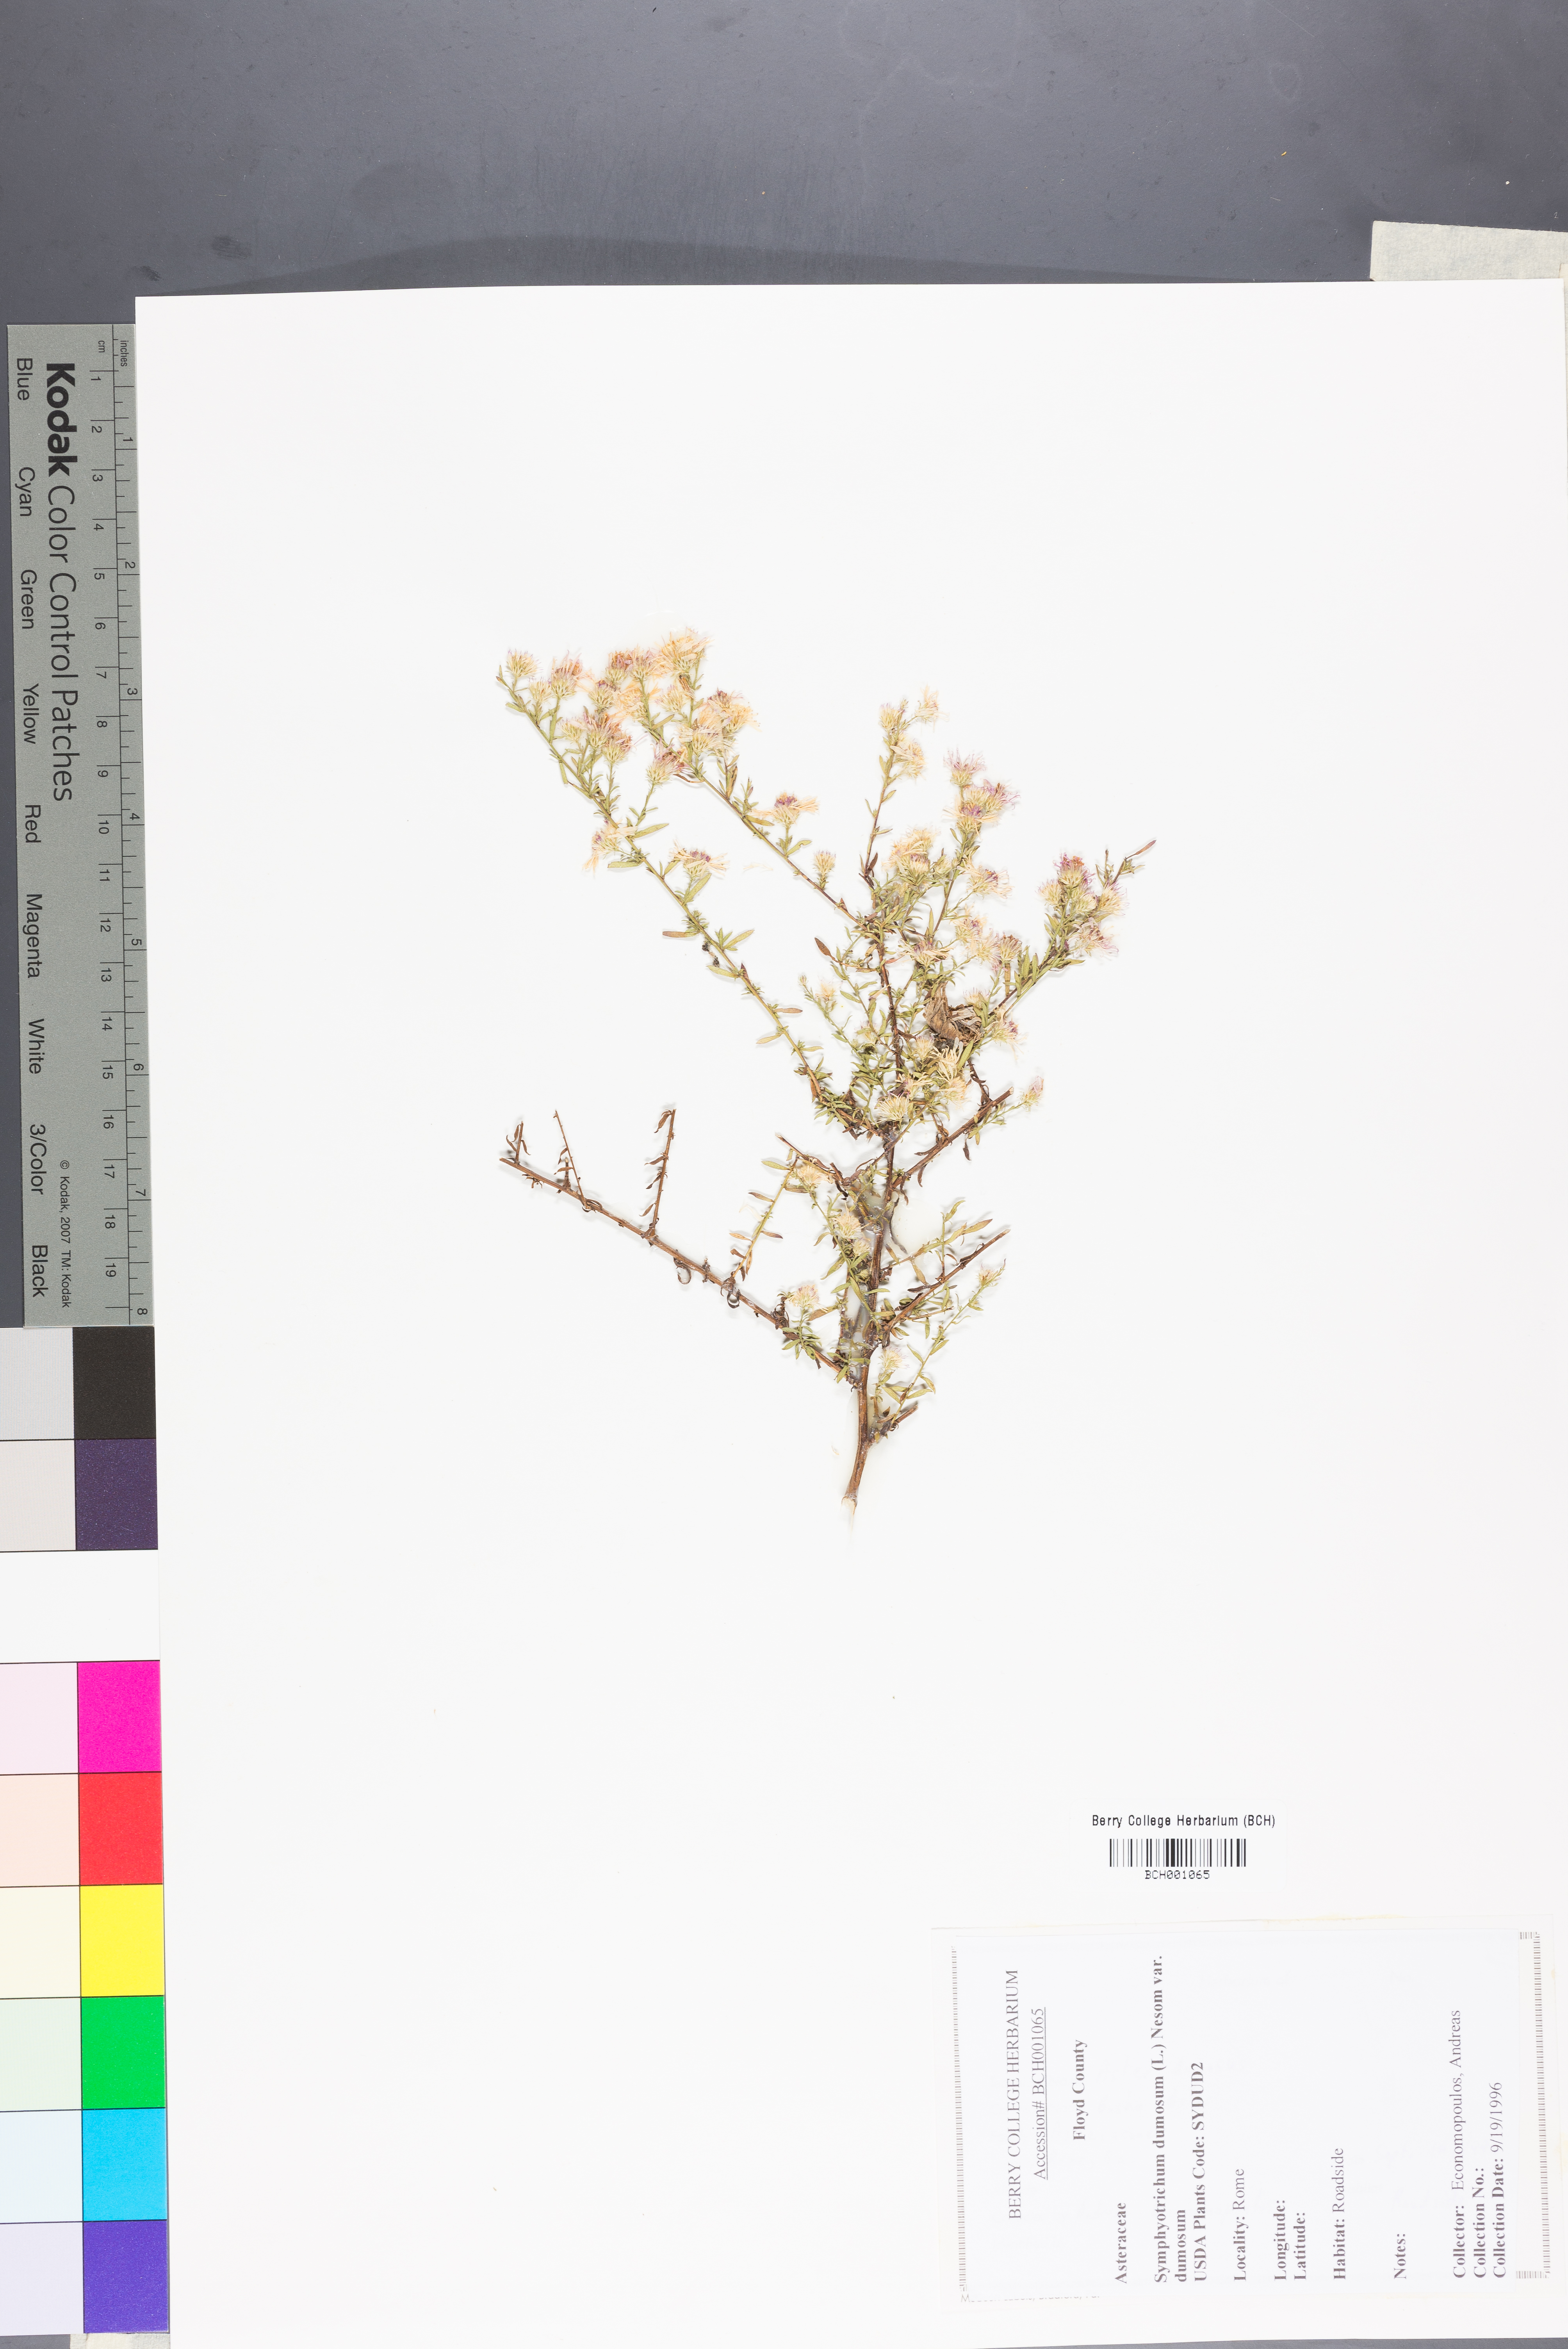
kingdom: Plantae
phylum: Tracheophyta
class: Magnoliopsida
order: Asterales
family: Asteraceae
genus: Symphyotrichum
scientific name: Symphyotrichum dumosum
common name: Bushy aster
